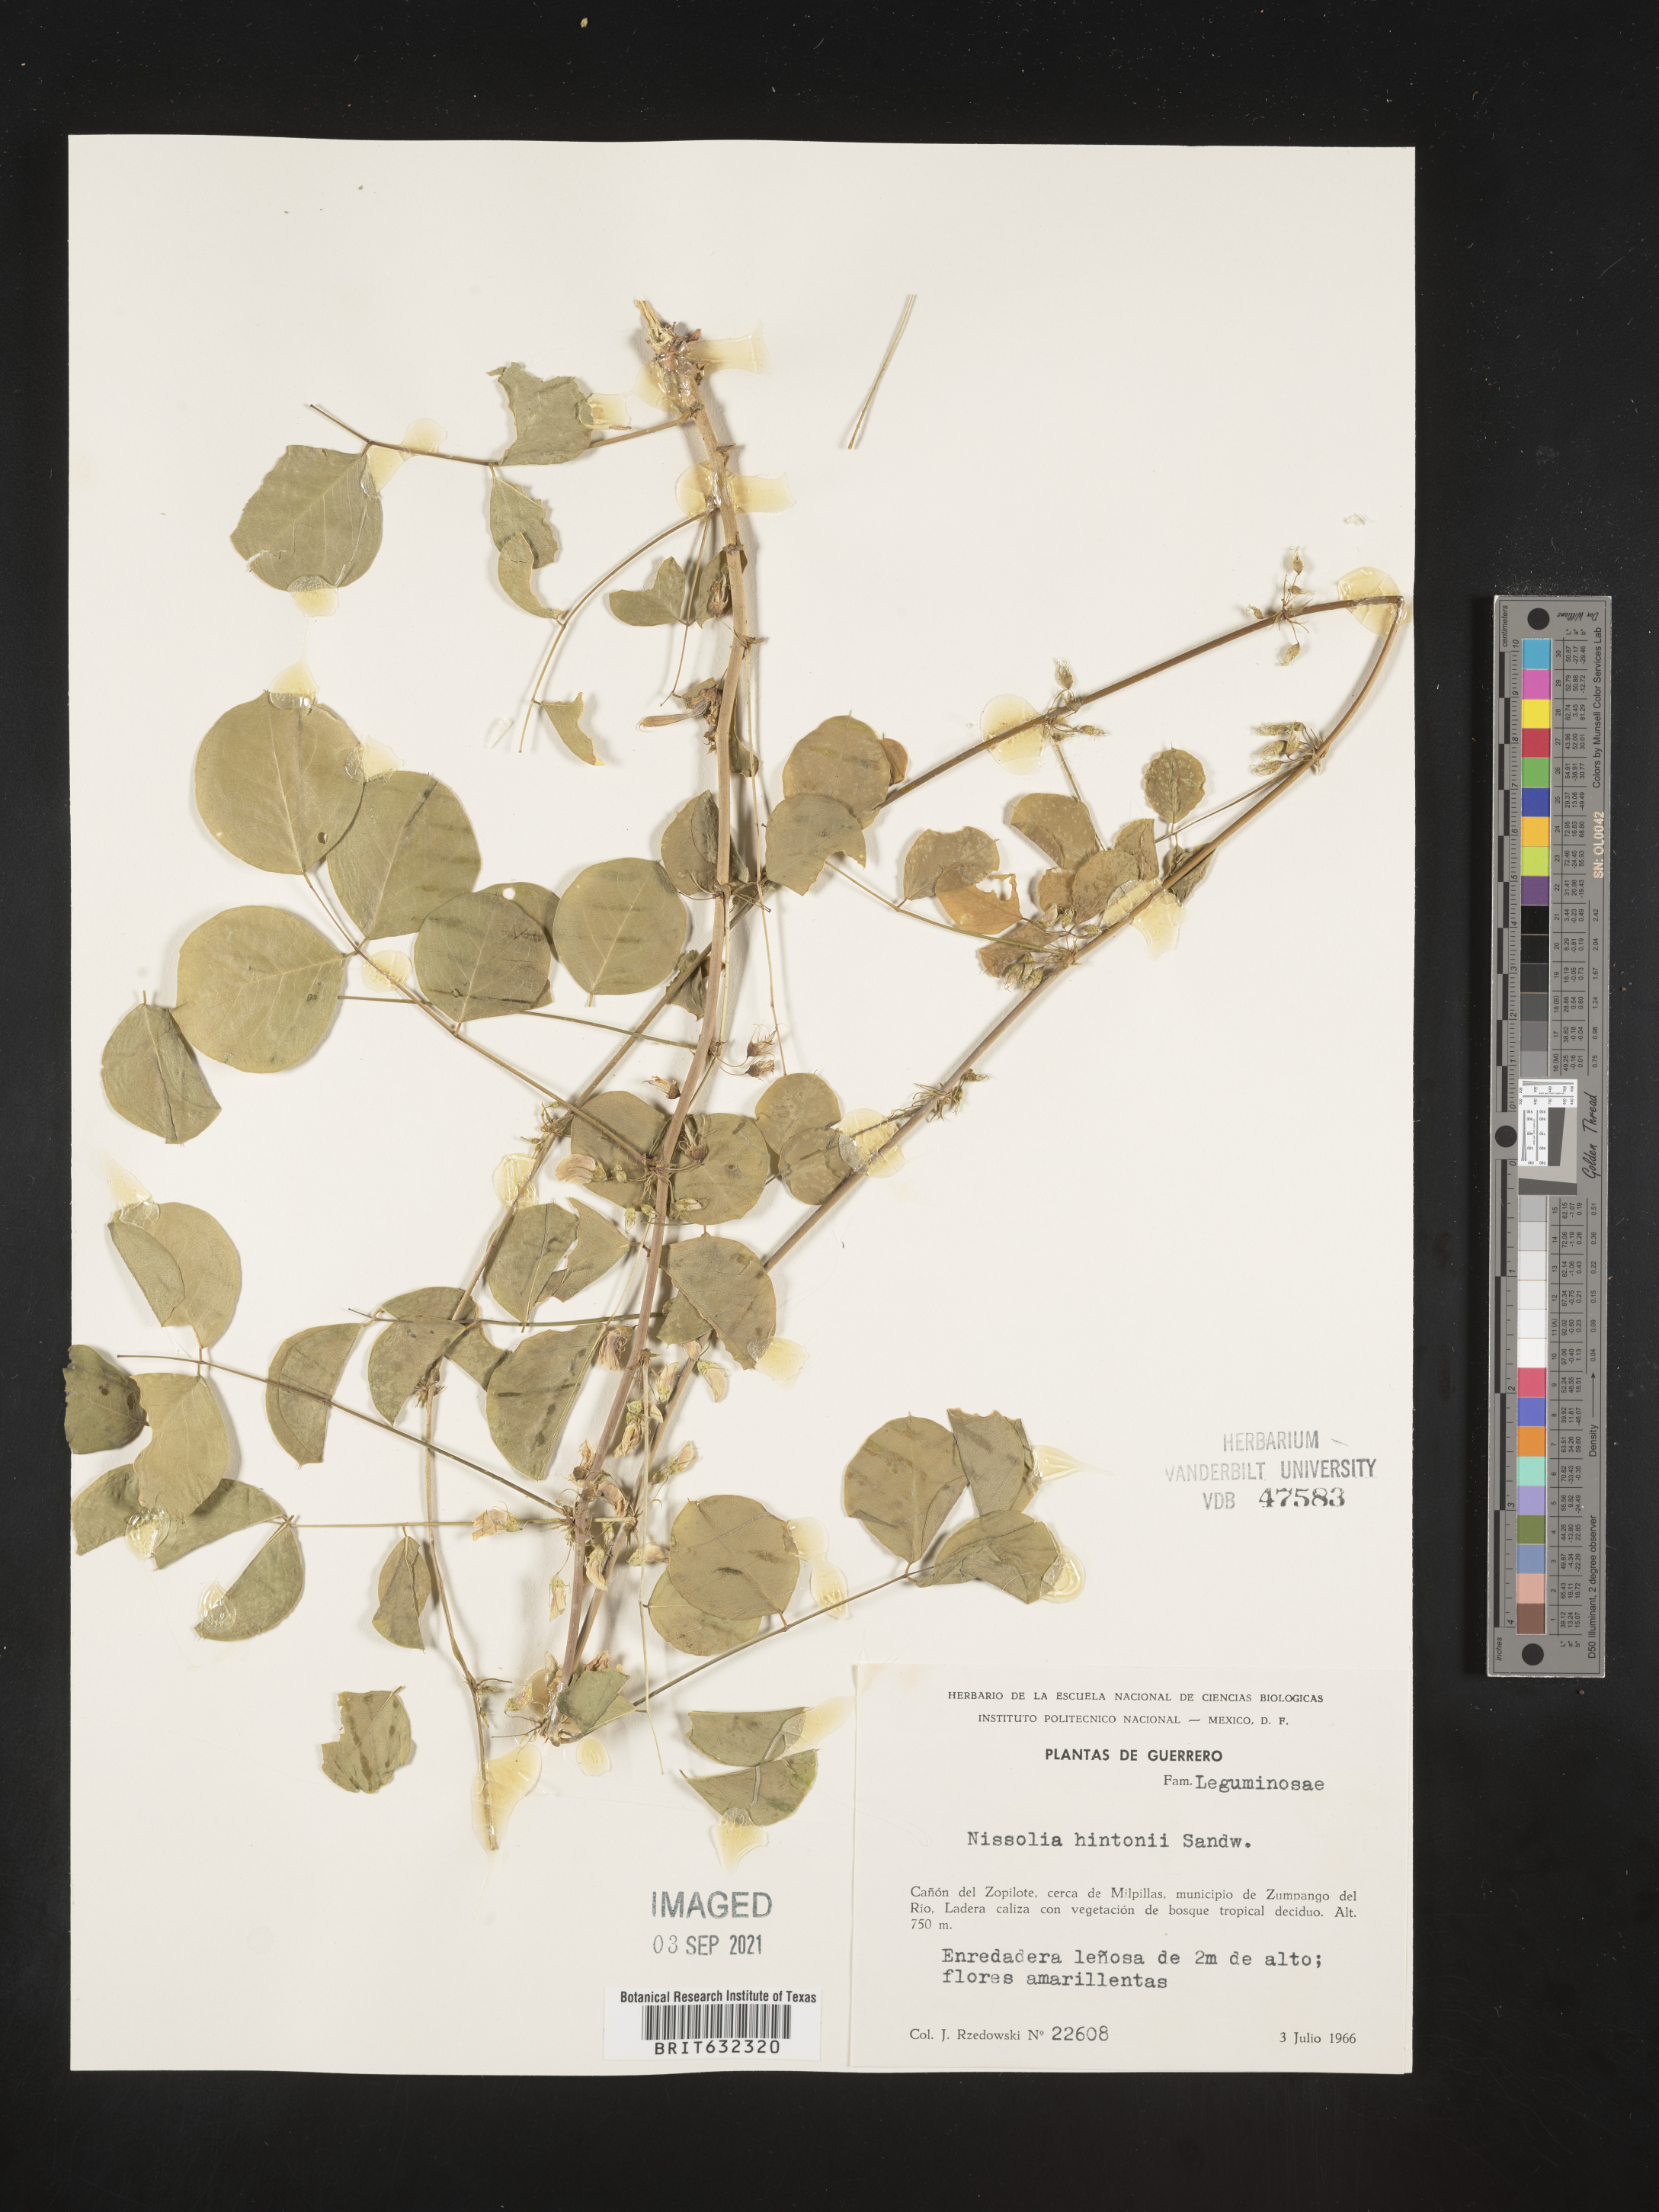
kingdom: Plantae
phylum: Tracheophyta
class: Magnoliopsida
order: Fabales
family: Fabaceae
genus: Nissolia
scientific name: Nissolia
